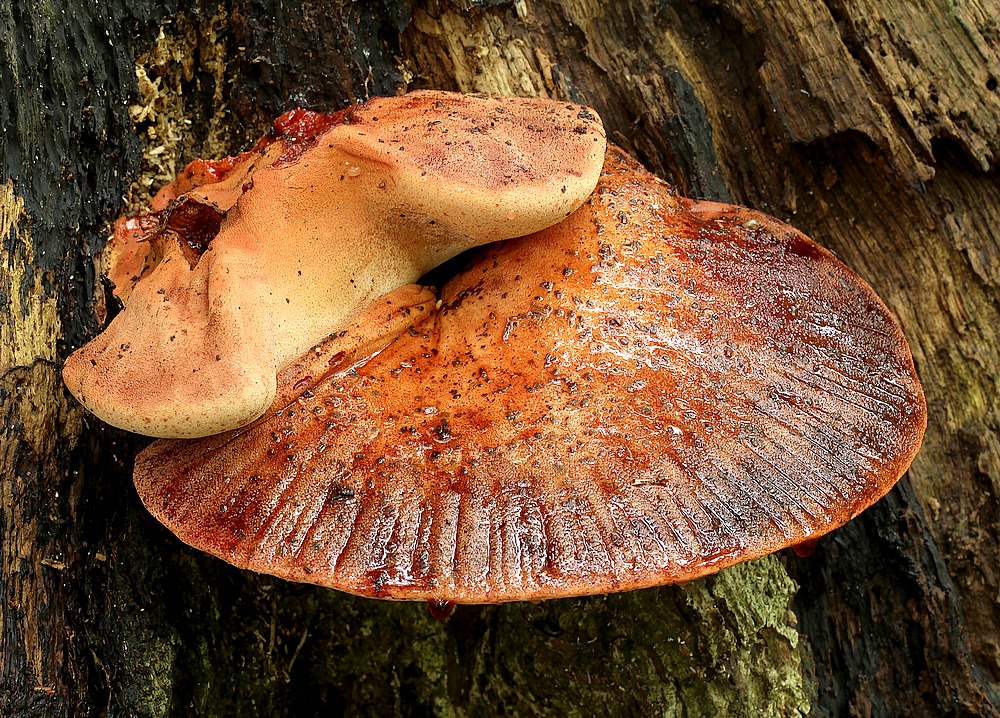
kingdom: Fungi
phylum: Basidiomycota
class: Agaricomycetes
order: Agaricales
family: Fistulinaceae
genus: Fistulina
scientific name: Fistulina hepatica
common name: oksetunge
